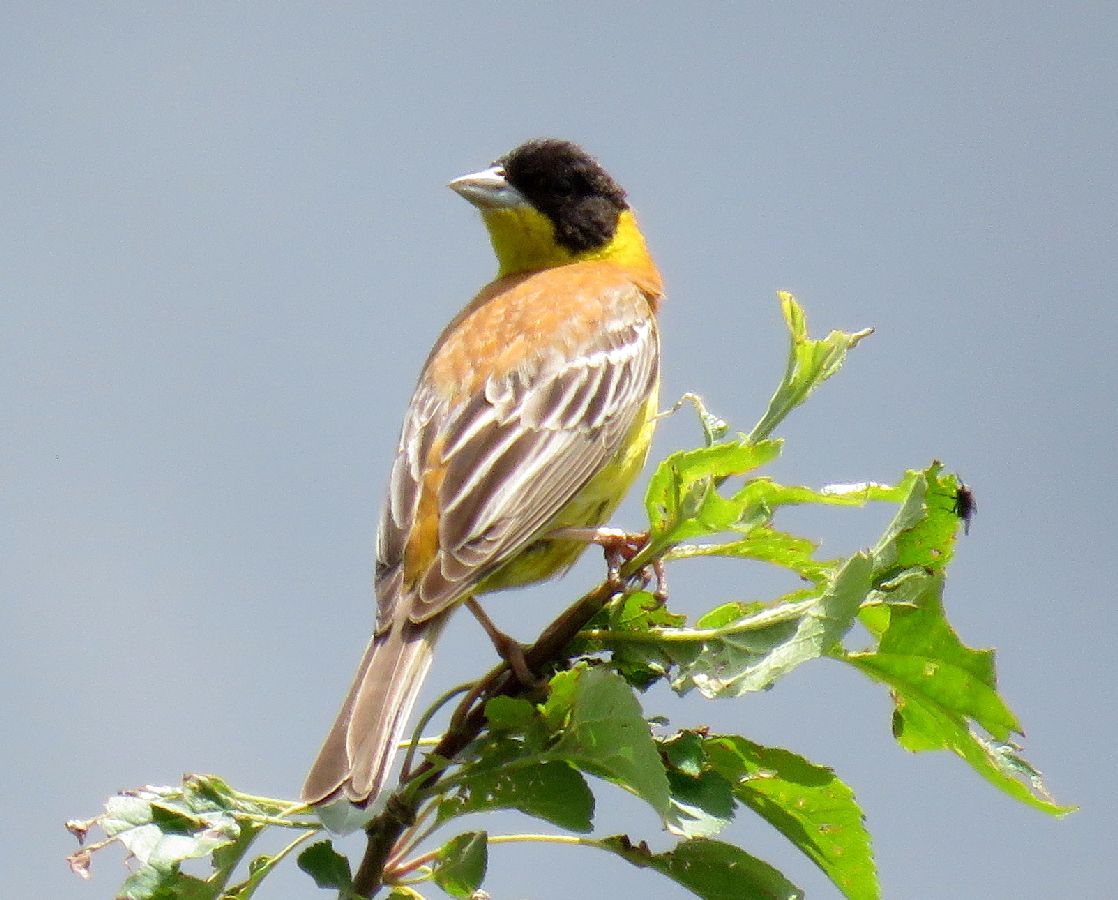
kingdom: Animalia
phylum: Chordata
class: Aves
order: Passeriformes
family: Emberizidae
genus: Emberiza
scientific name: Emberiza melanocephala
